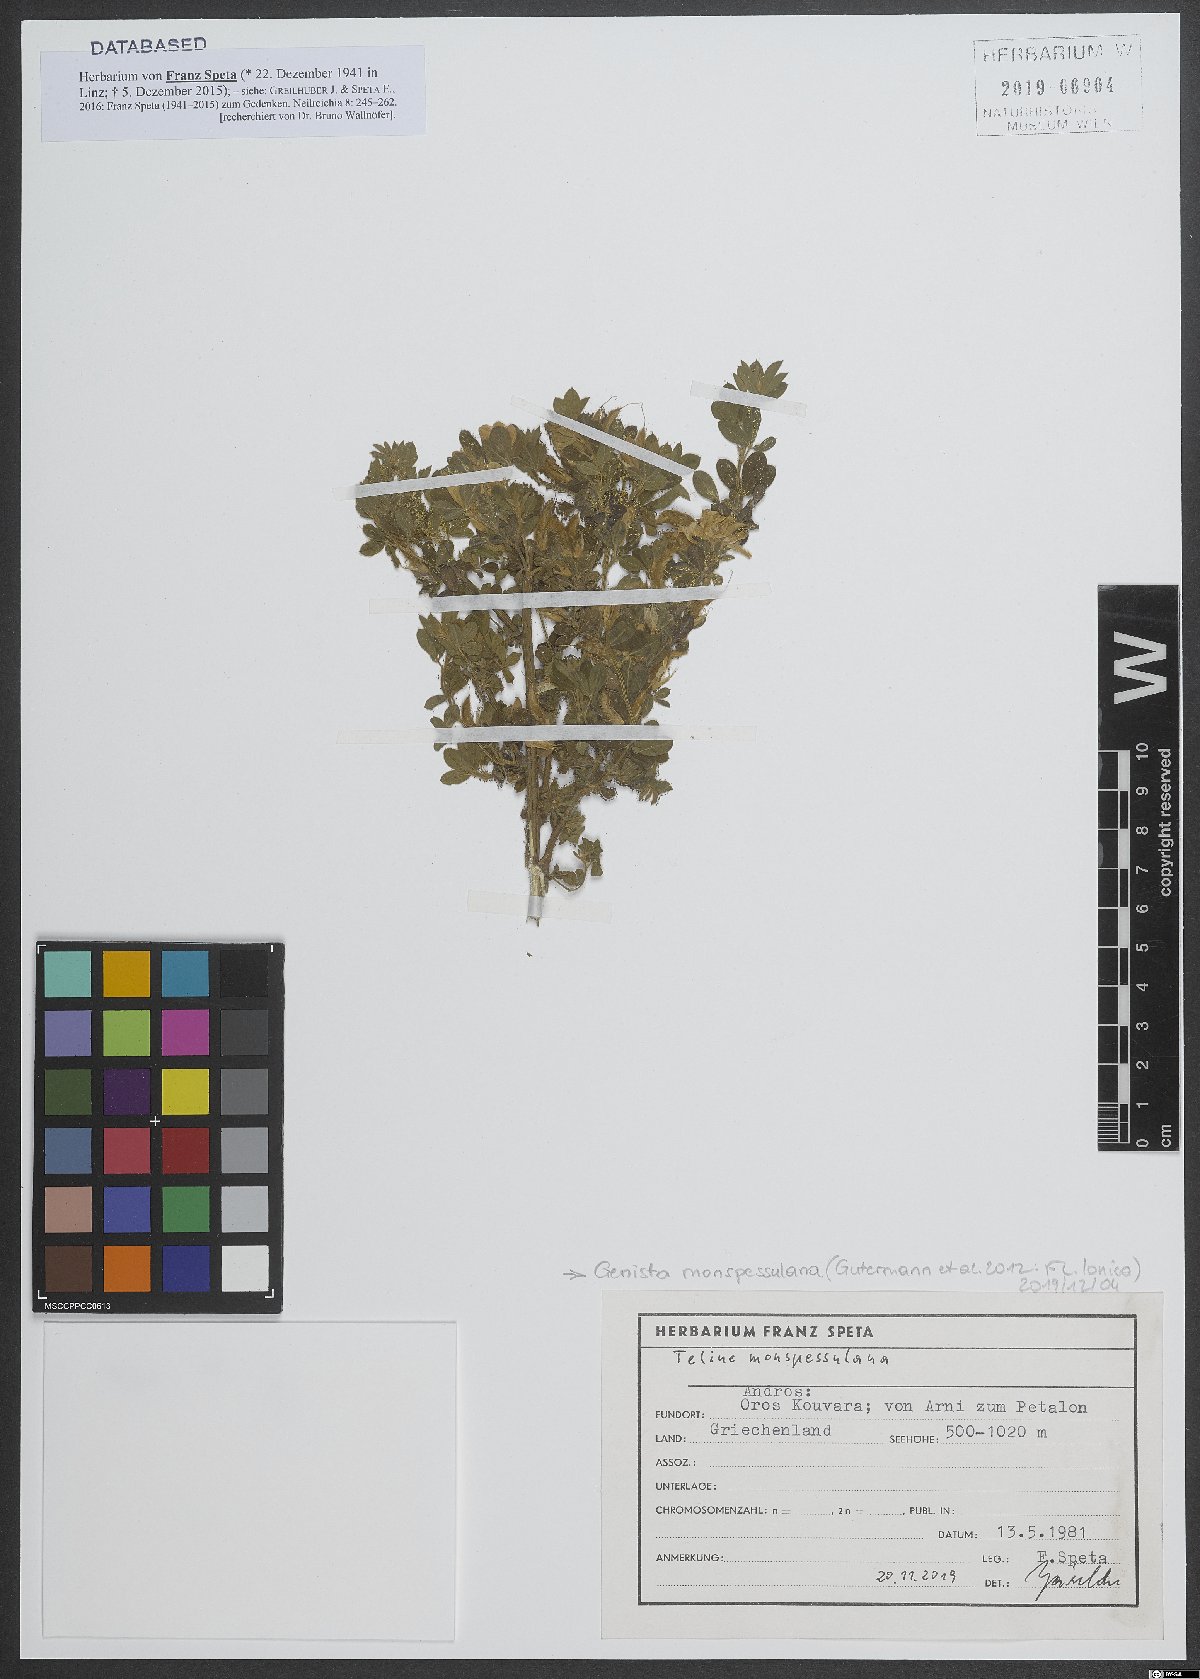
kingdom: Plantae
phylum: Tracheophyta
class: Magnoliopsida
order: Fabales
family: Fabaceae
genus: Genista
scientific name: Genista monspessulana
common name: Montpellier broom
